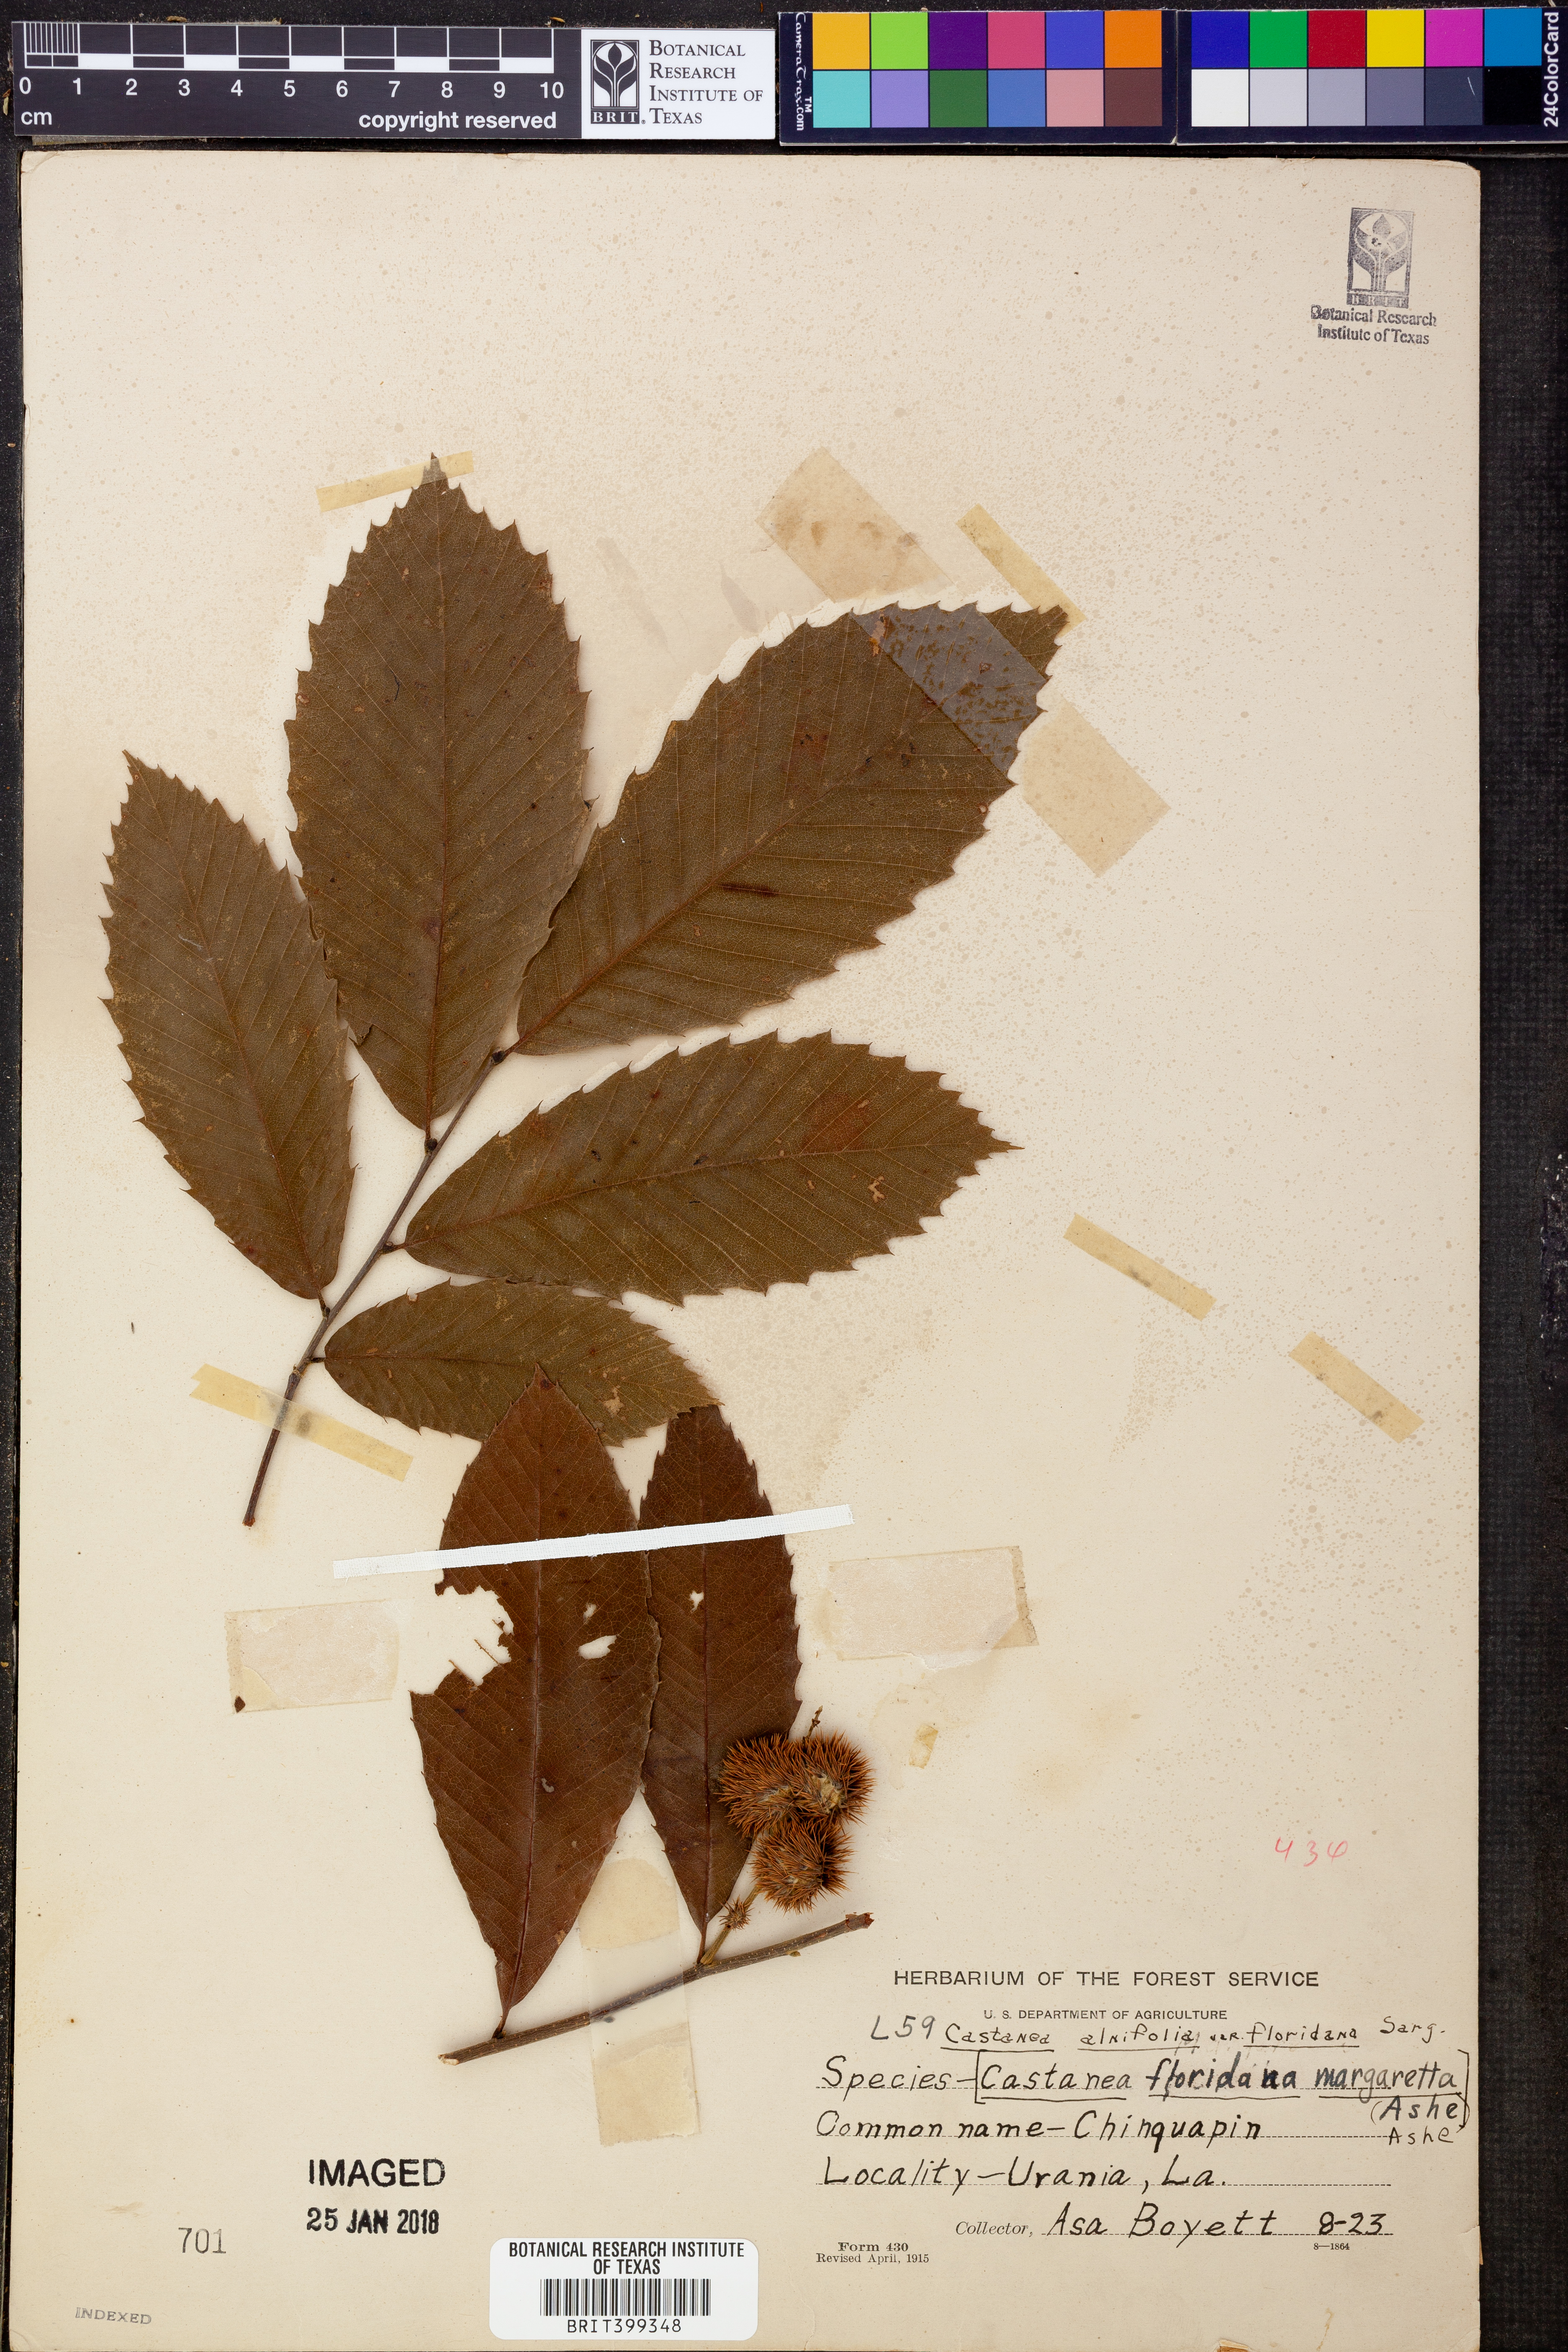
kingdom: Plantae
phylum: Tracheophyta
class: Magnoliopsida
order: Fagales
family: Fagaceae
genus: Castanea
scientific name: Castanea pumila
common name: Chinkapin
